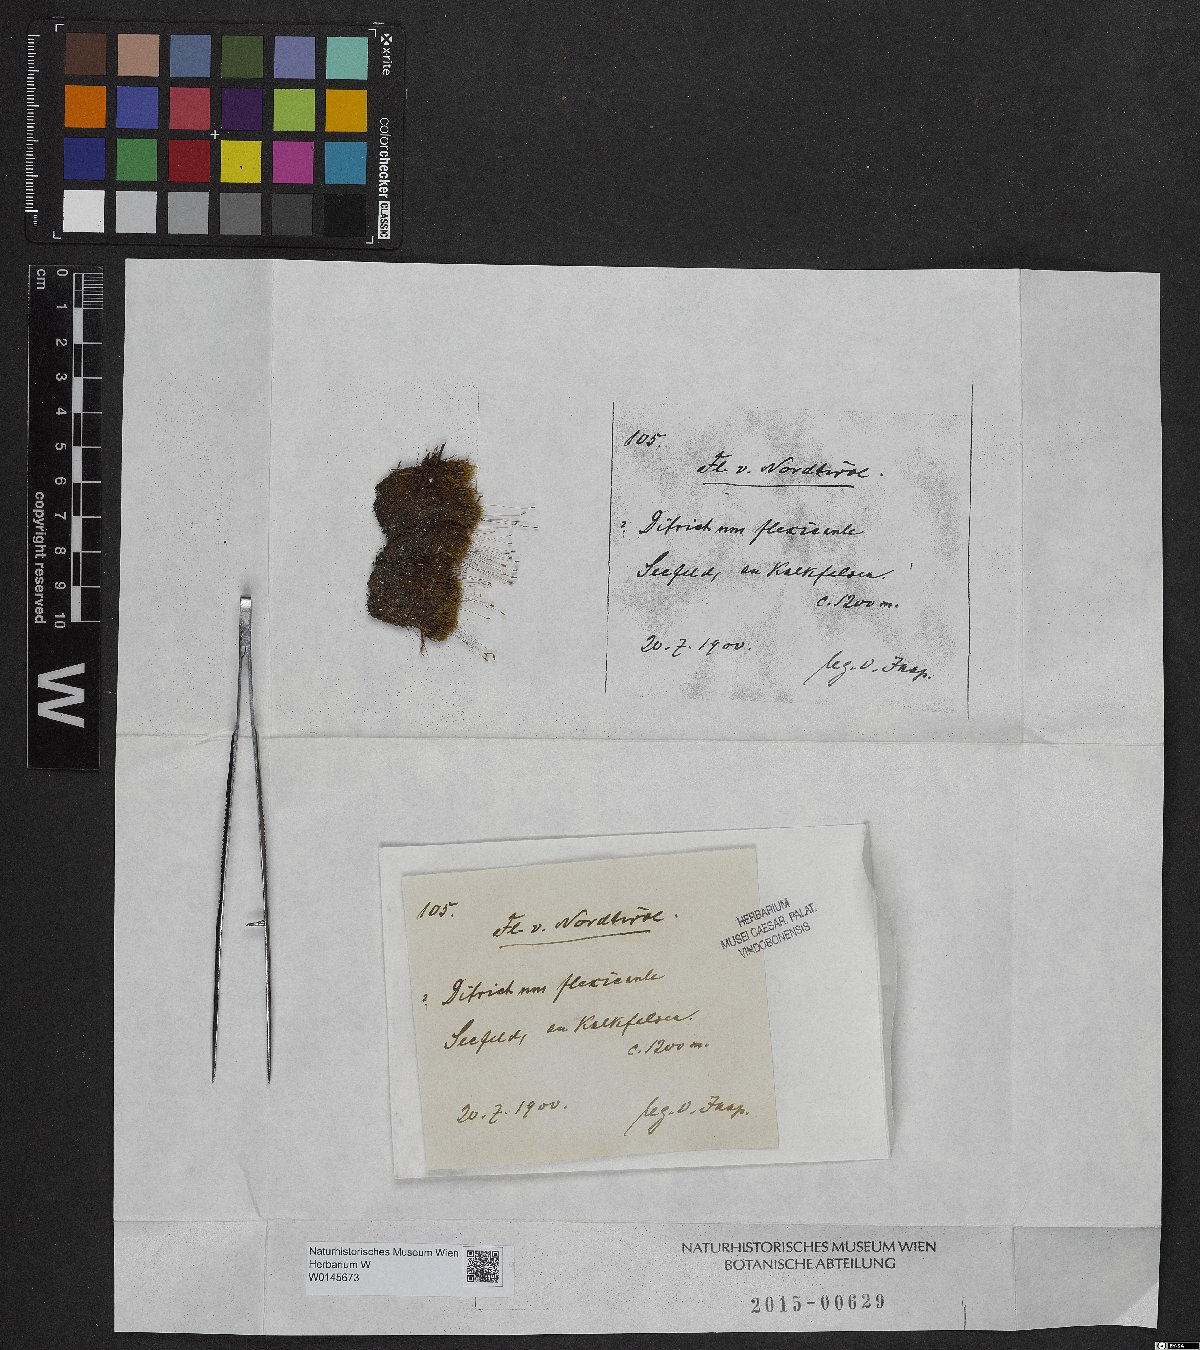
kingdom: Plantae
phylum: Bryophyta
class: Bryopsida
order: Scouleriales
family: Flexitrichaceae
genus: Flexitrichum
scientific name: Flexitrichum flexicaule
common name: Bendy ditrichum
